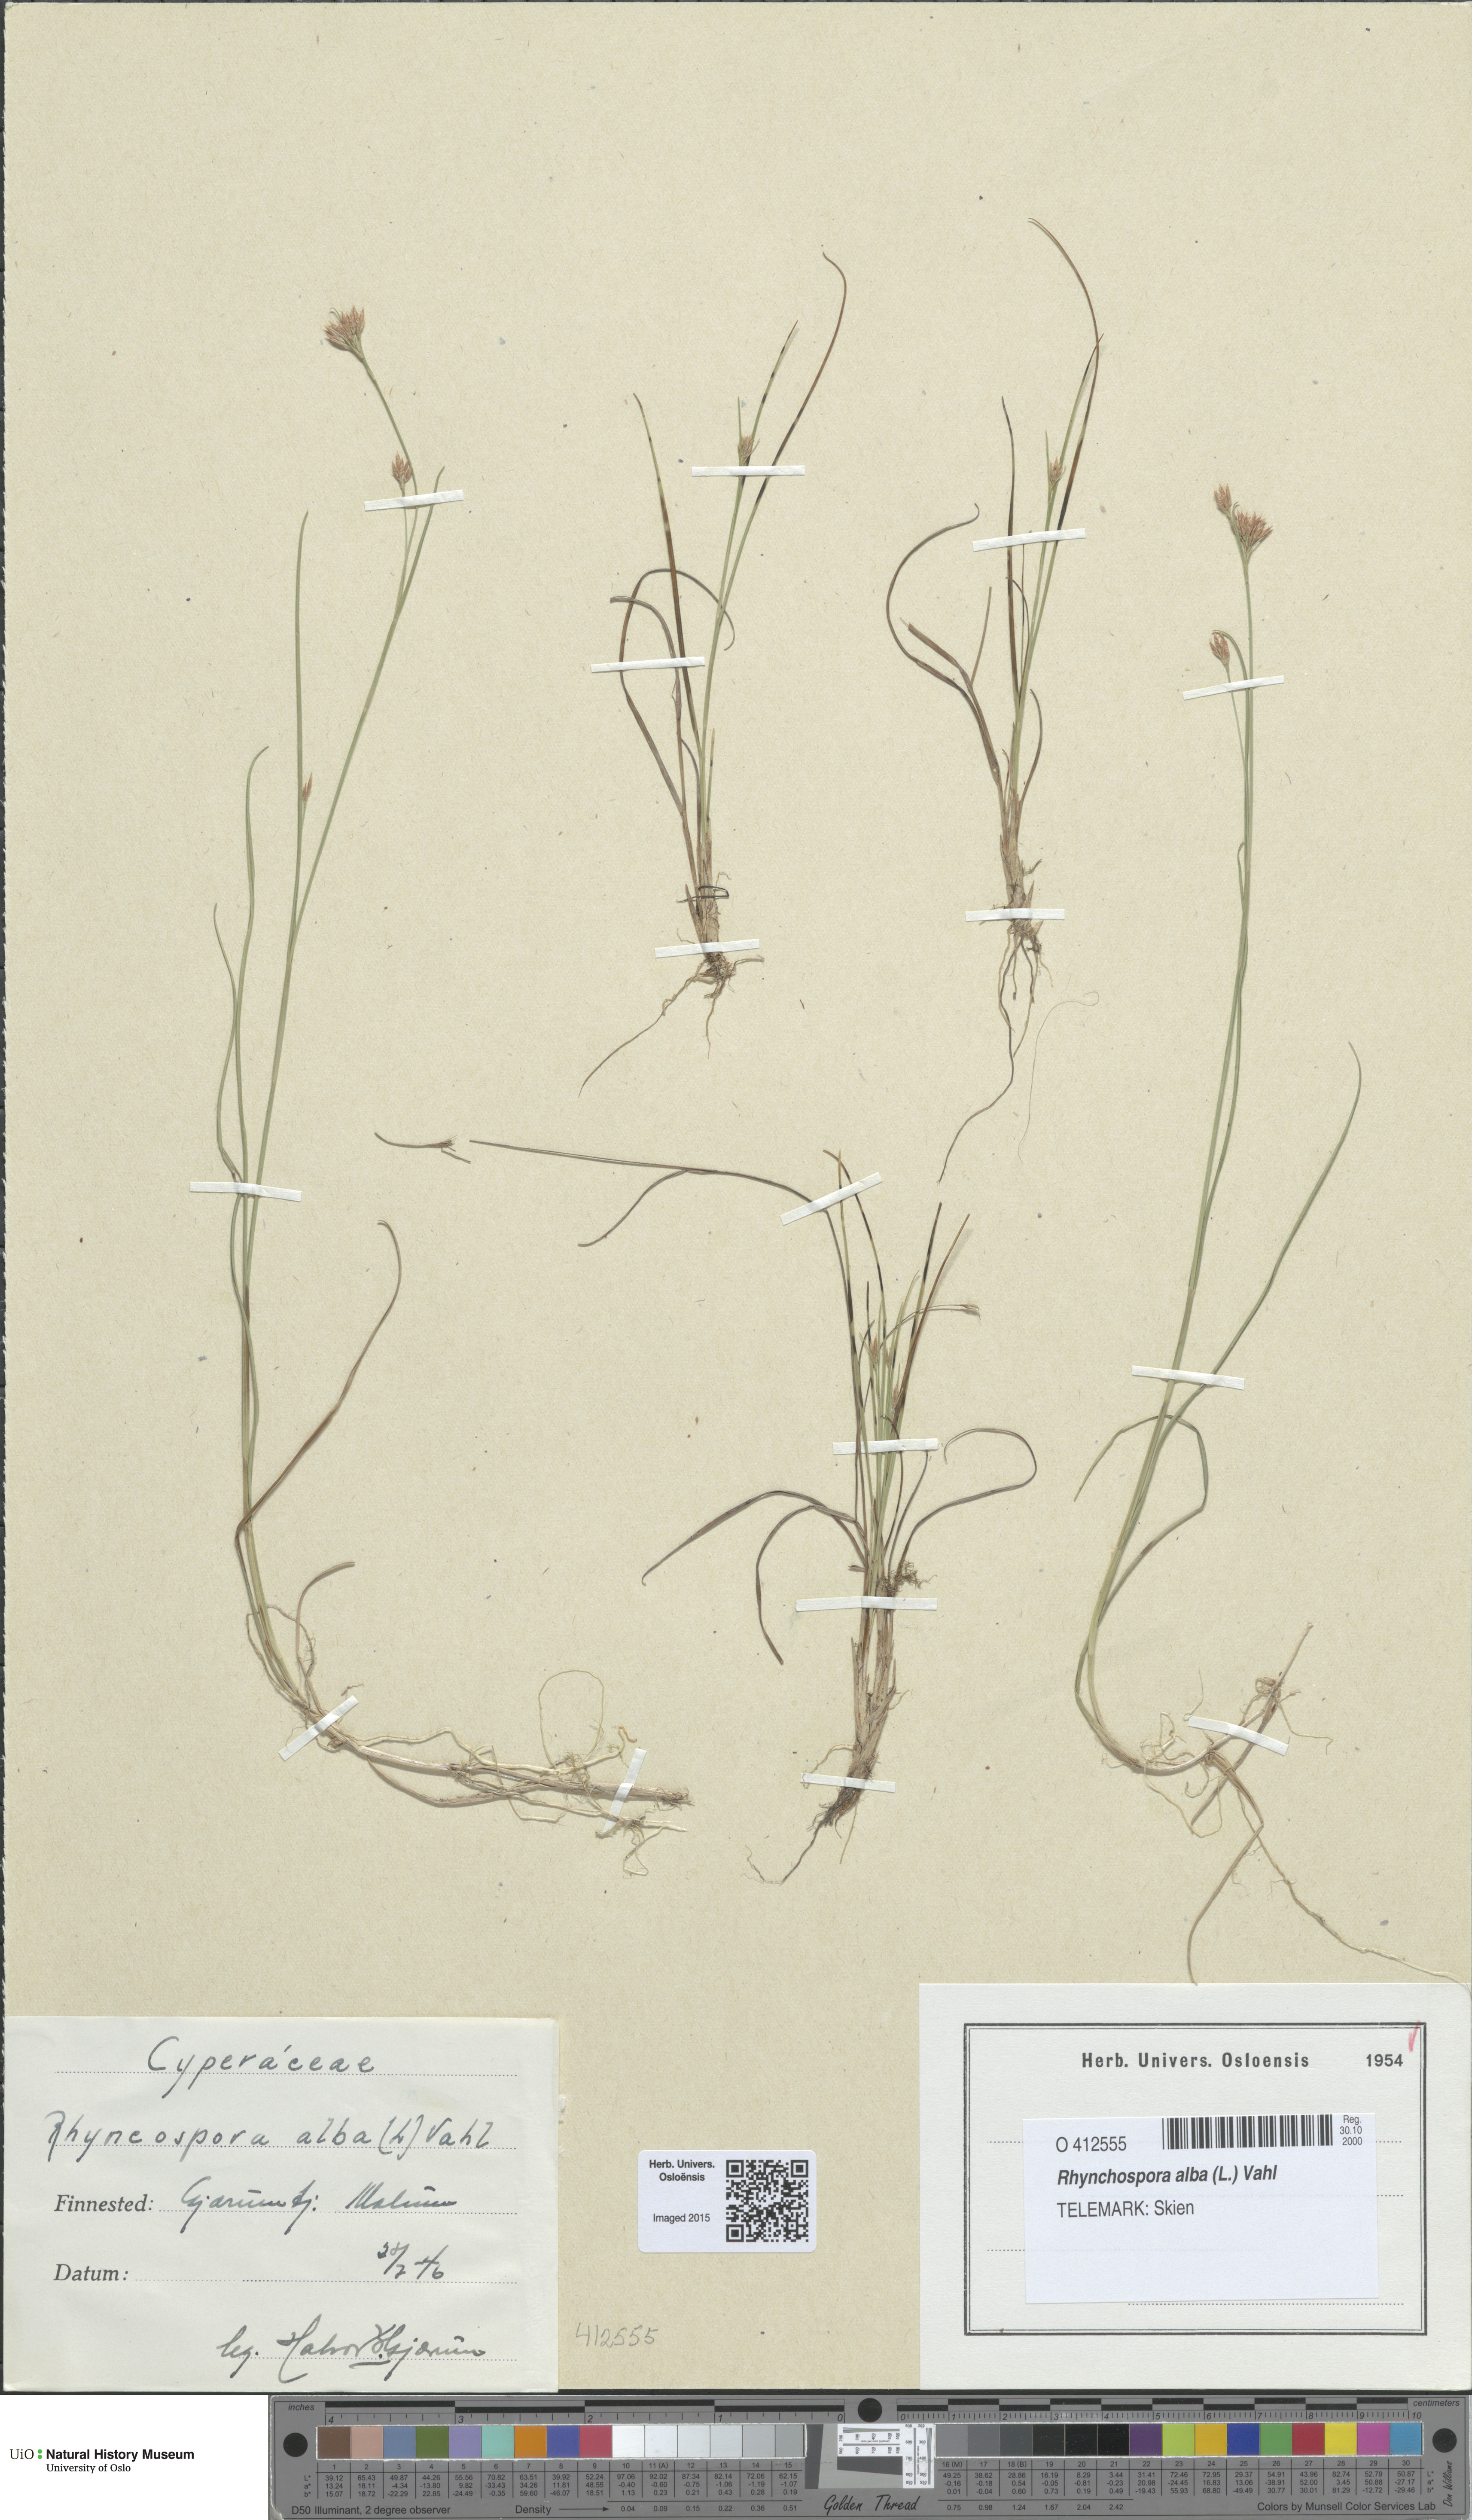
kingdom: Plantae
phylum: Tracheophyta
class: Liliopsida
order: Poales
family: Cyperaceae
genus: Rhynchospora
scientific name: Rhynchospora alba
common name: White beak-sedge
